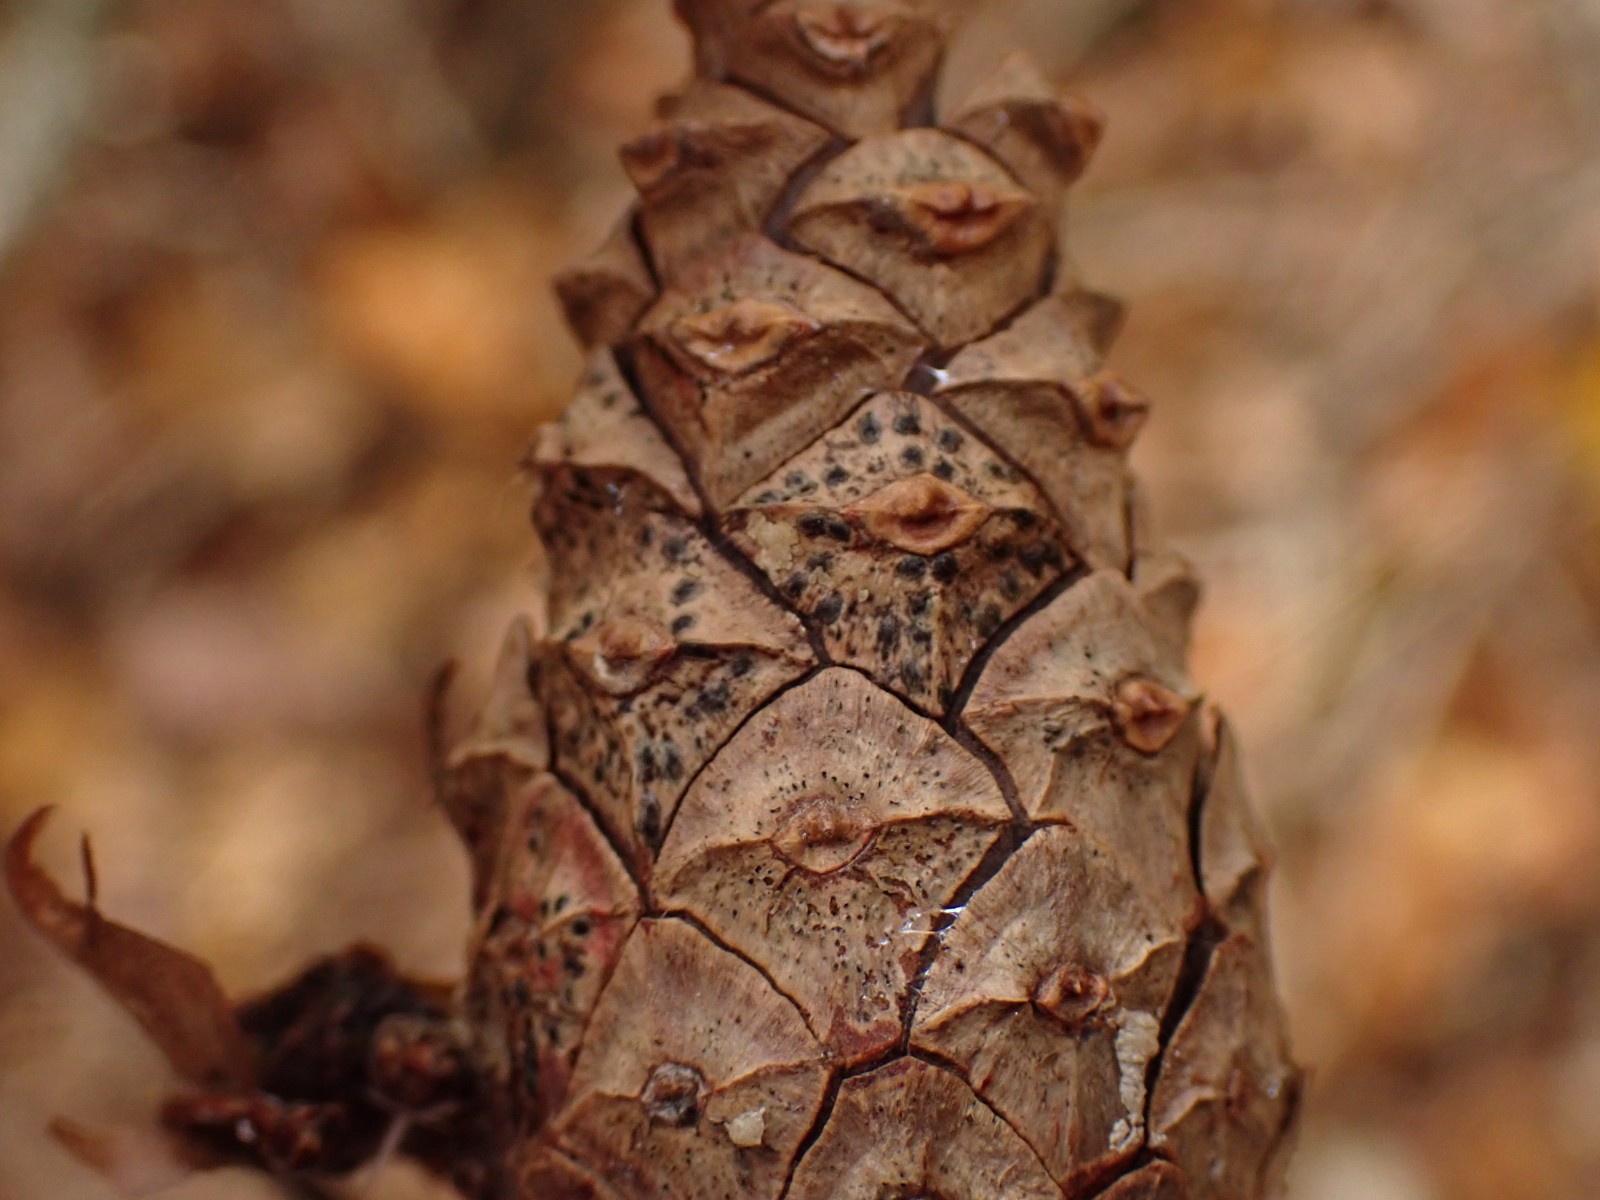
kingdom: Fungi
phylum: Ascomycota
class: Dothideomycetes
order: Botryosphaeriales
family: Botryosphaeriaceae
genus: Sphaeropsis
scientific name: Sphaeropsis sapinea
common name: Sphaeropsis blight
